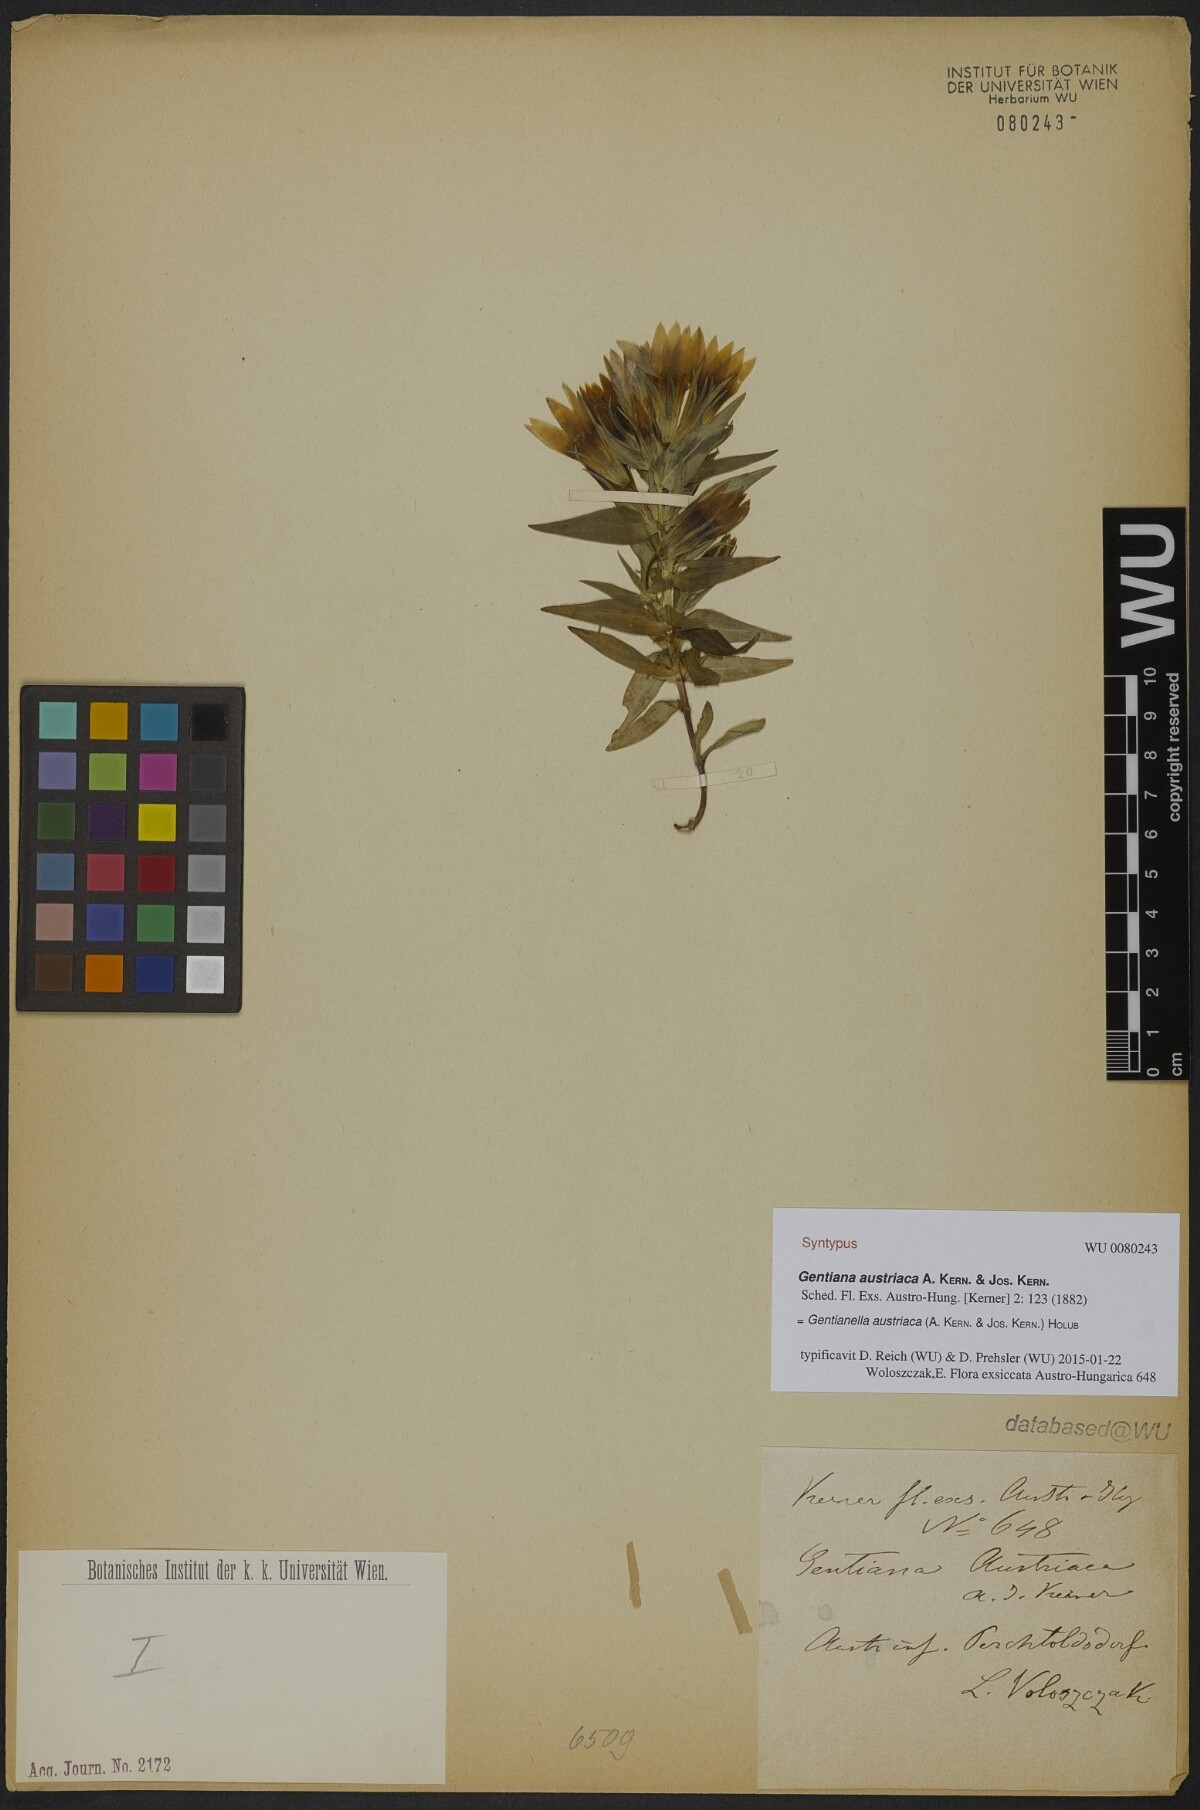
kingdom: Plantae
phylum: Tracheophyta
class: Magnoliopsida
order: Gentianales
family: Gentianaceae
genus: Gentianella
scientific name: Gentianella austriaca
